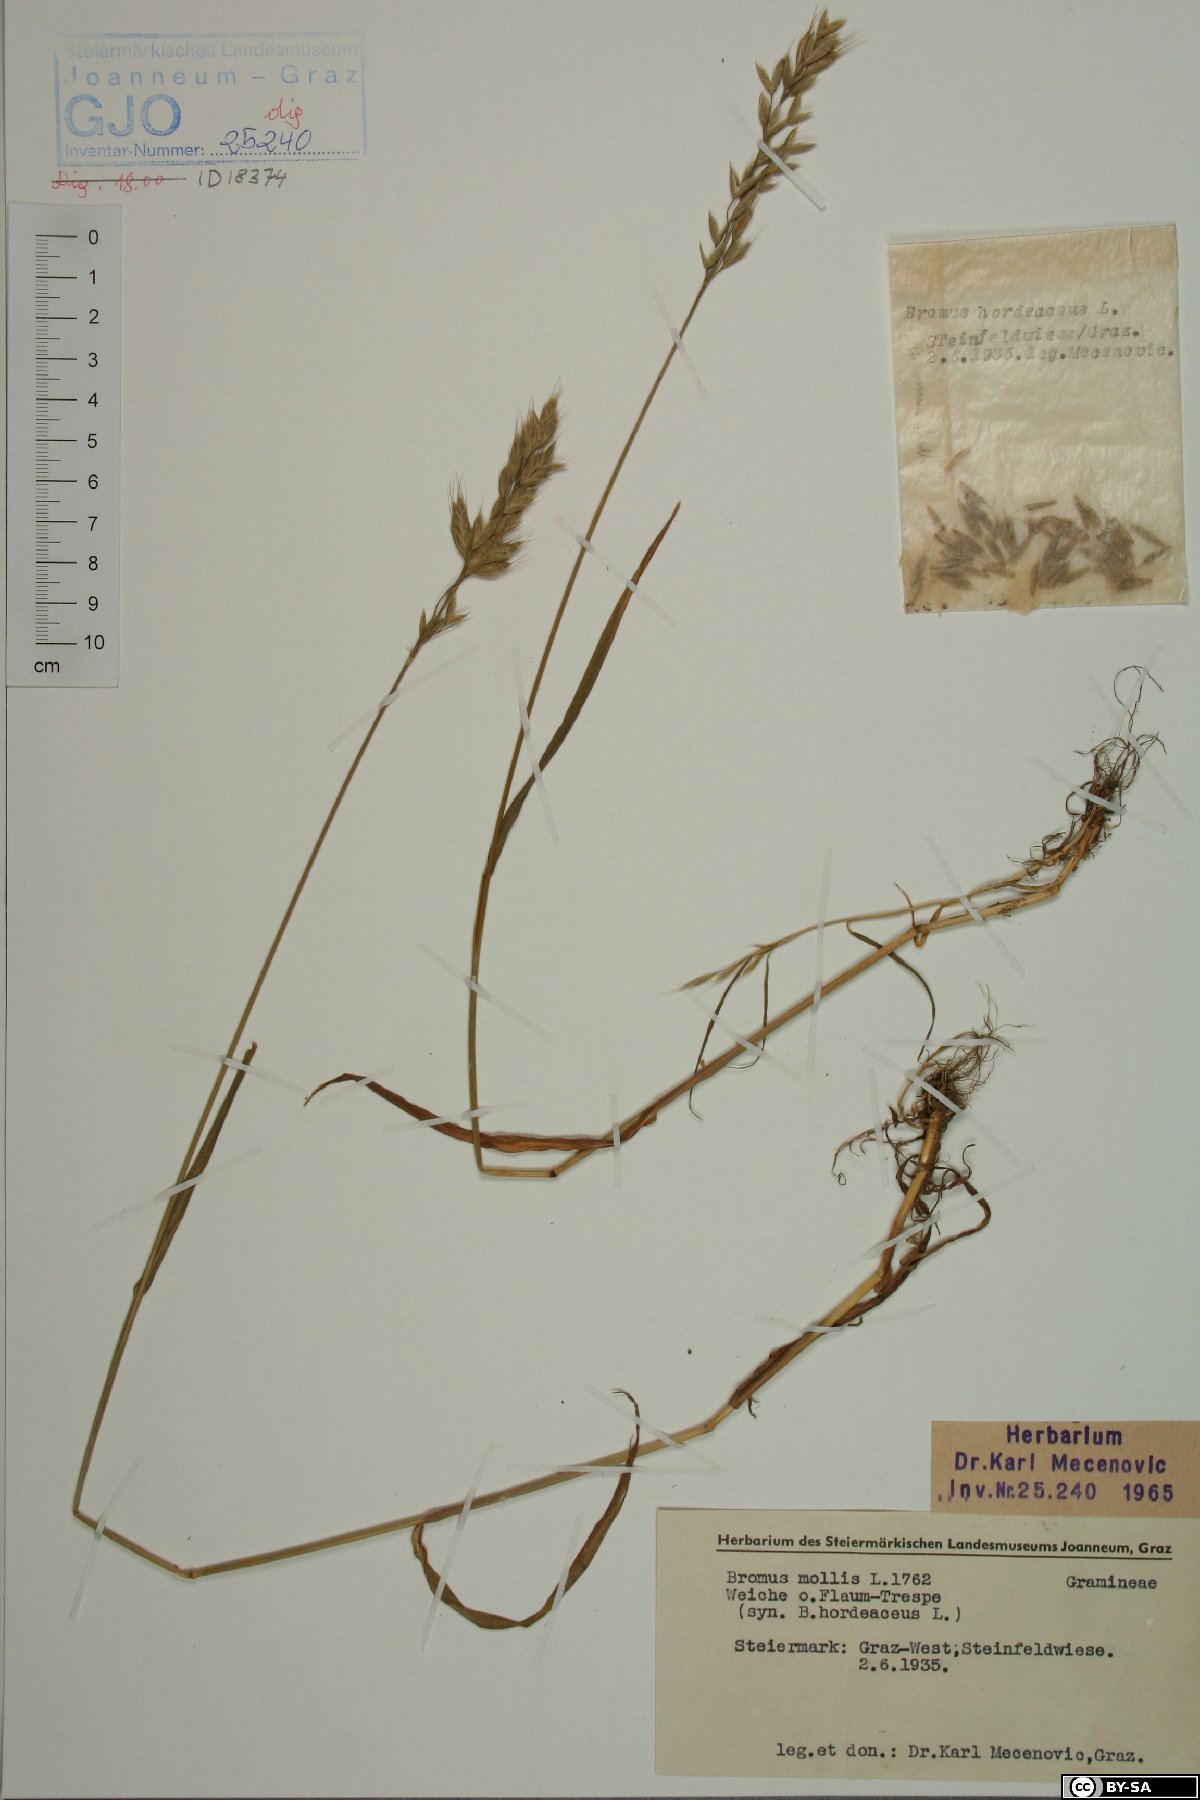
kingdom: Plantae
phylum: Tracheophyta
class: Liliopsida
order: Poales
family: Poaceae
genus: Bromus
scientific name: Bromus hordeaceus
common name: Soft brome
